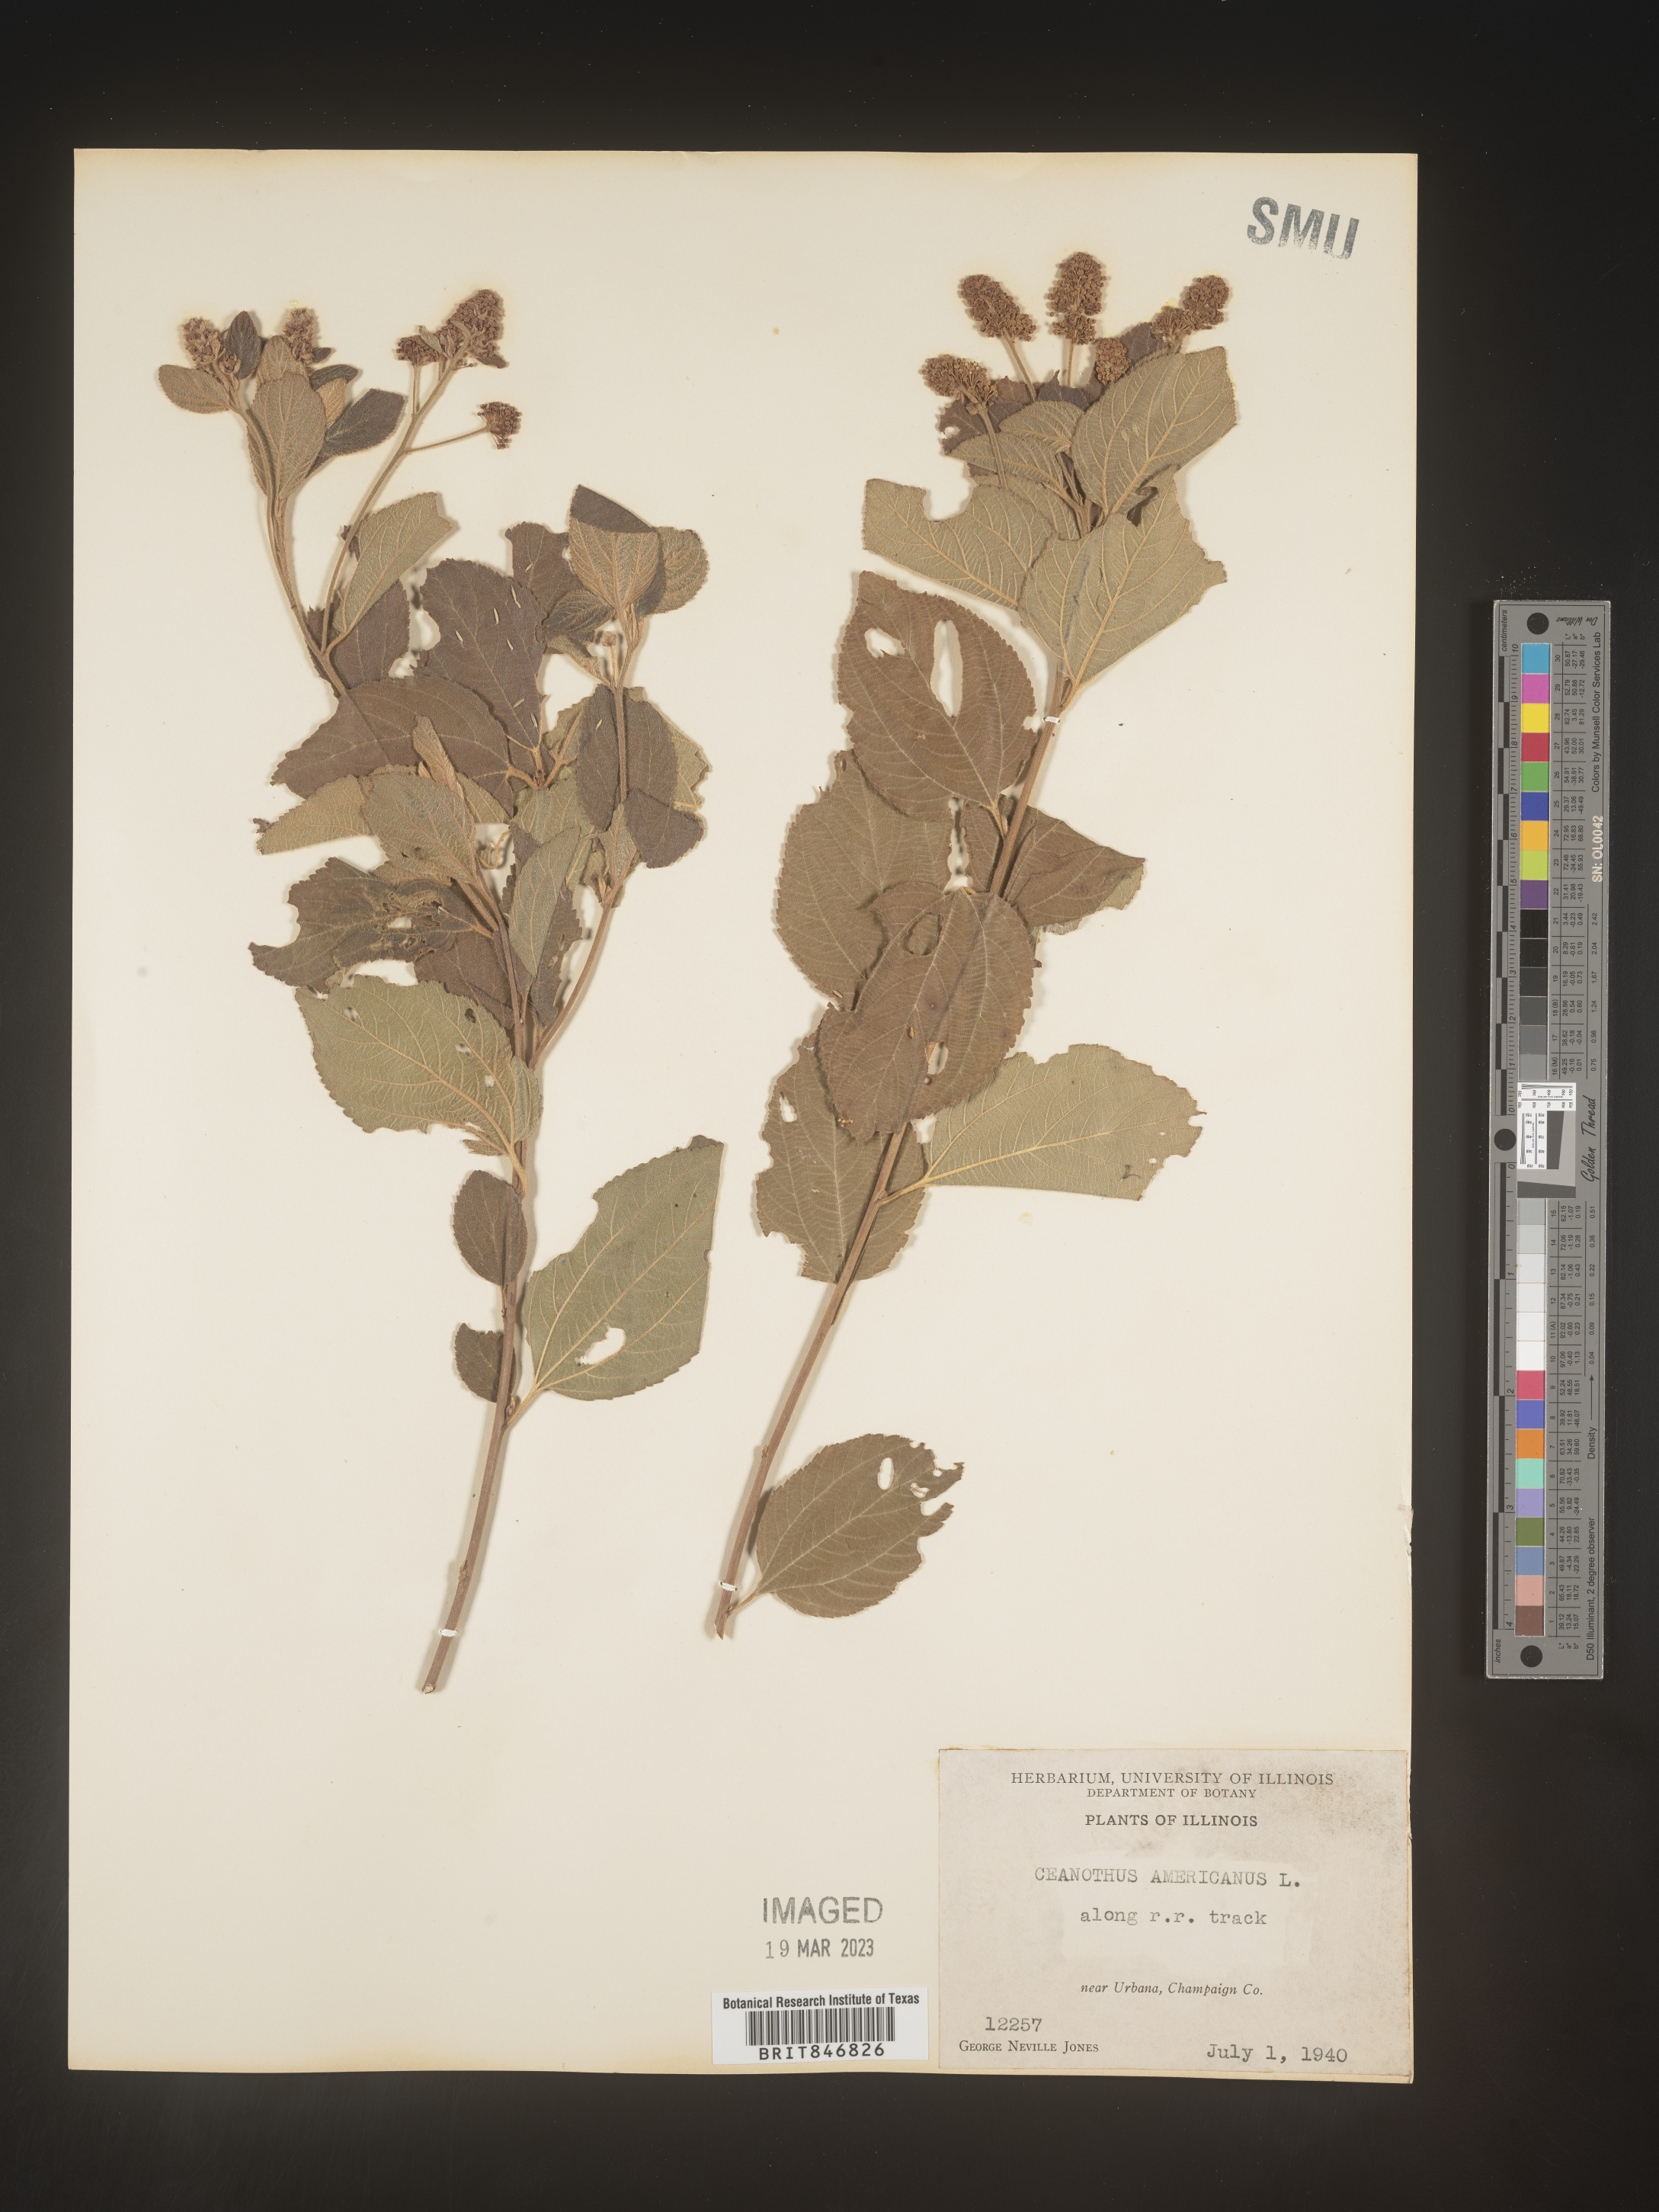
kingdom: Plantae
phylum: Tracheophyta
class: Magnoliopsida
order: Rosales
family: Rhamnaceae
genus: Ceanothus
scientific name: Ceanothus americanus
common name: Redroot
